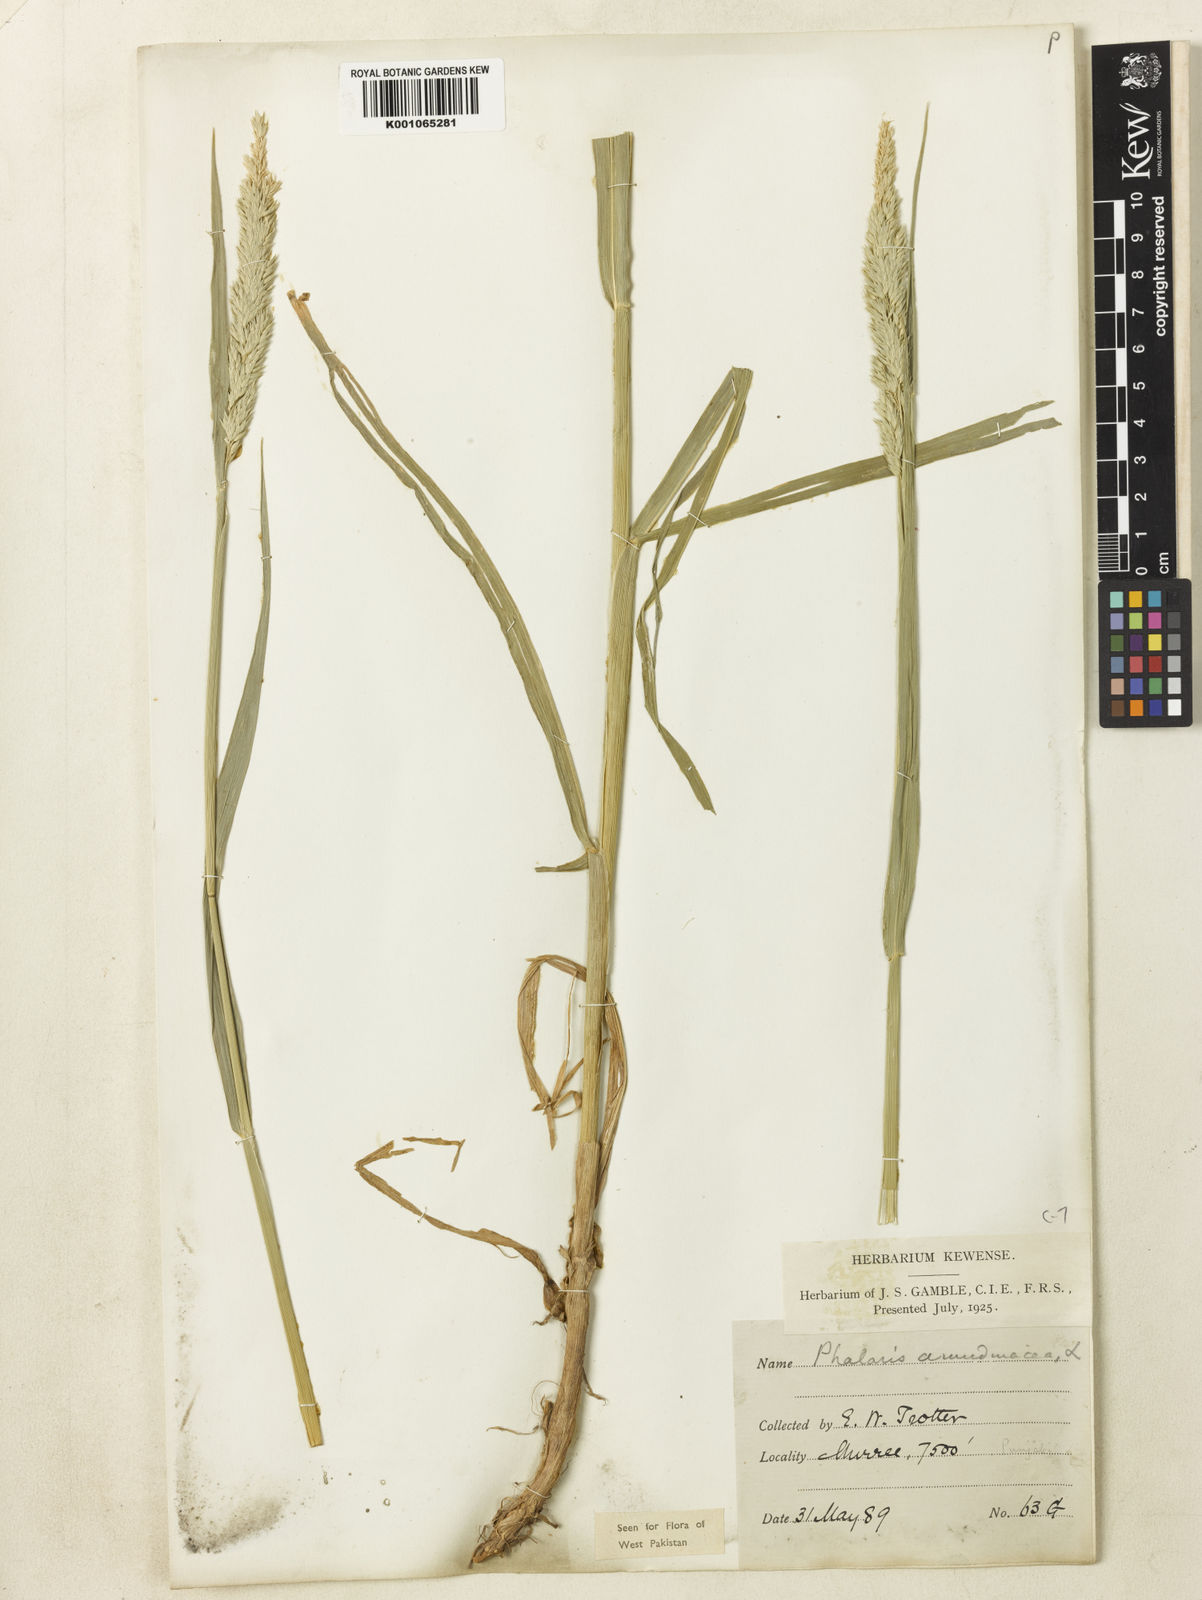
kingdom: Plantae
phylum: Tracheophyta
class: Liliopsida
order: Poales
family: Poaceae
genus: Phalaris
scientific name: Phalaris arundinacea
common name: Reed canary-grass
